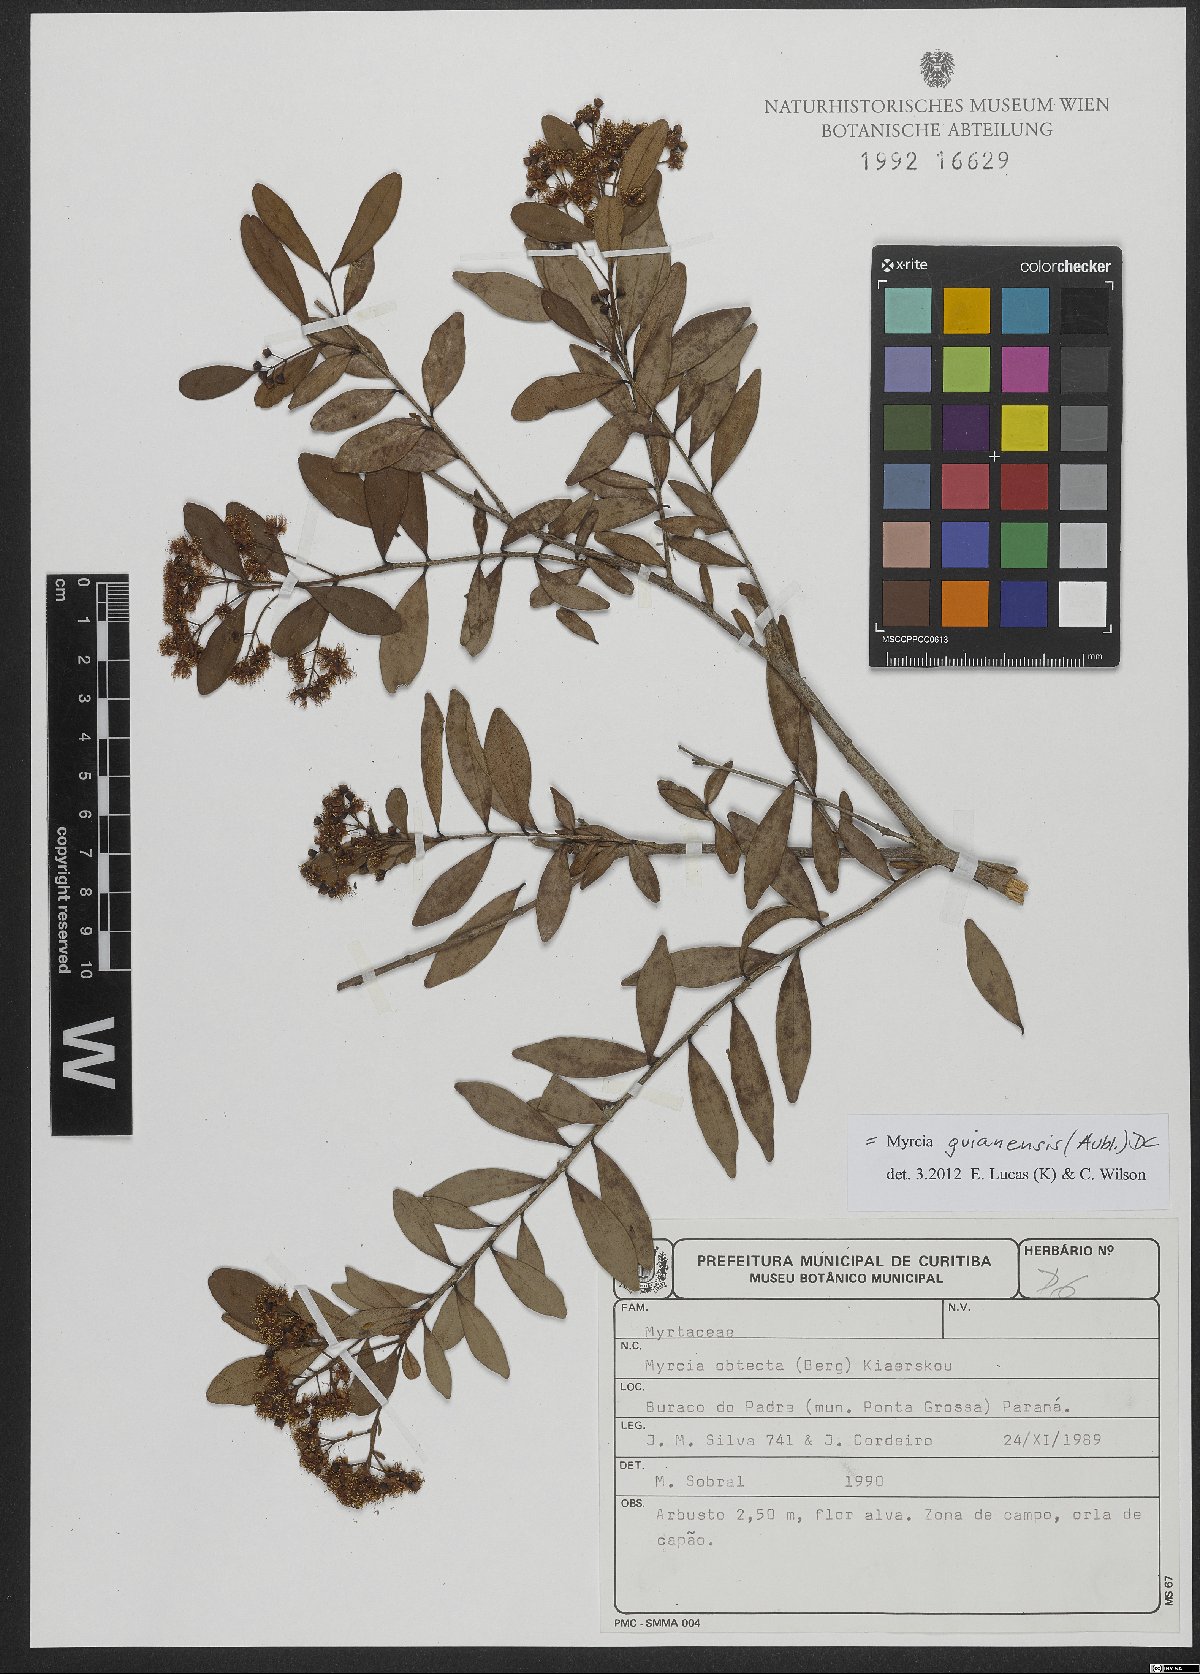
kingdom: Plantae
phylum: Tracheophyta
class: Magnoliopsida
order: Myrtales
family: Myrtaceae
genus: Myrcia
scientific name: Myrcia guianensis
